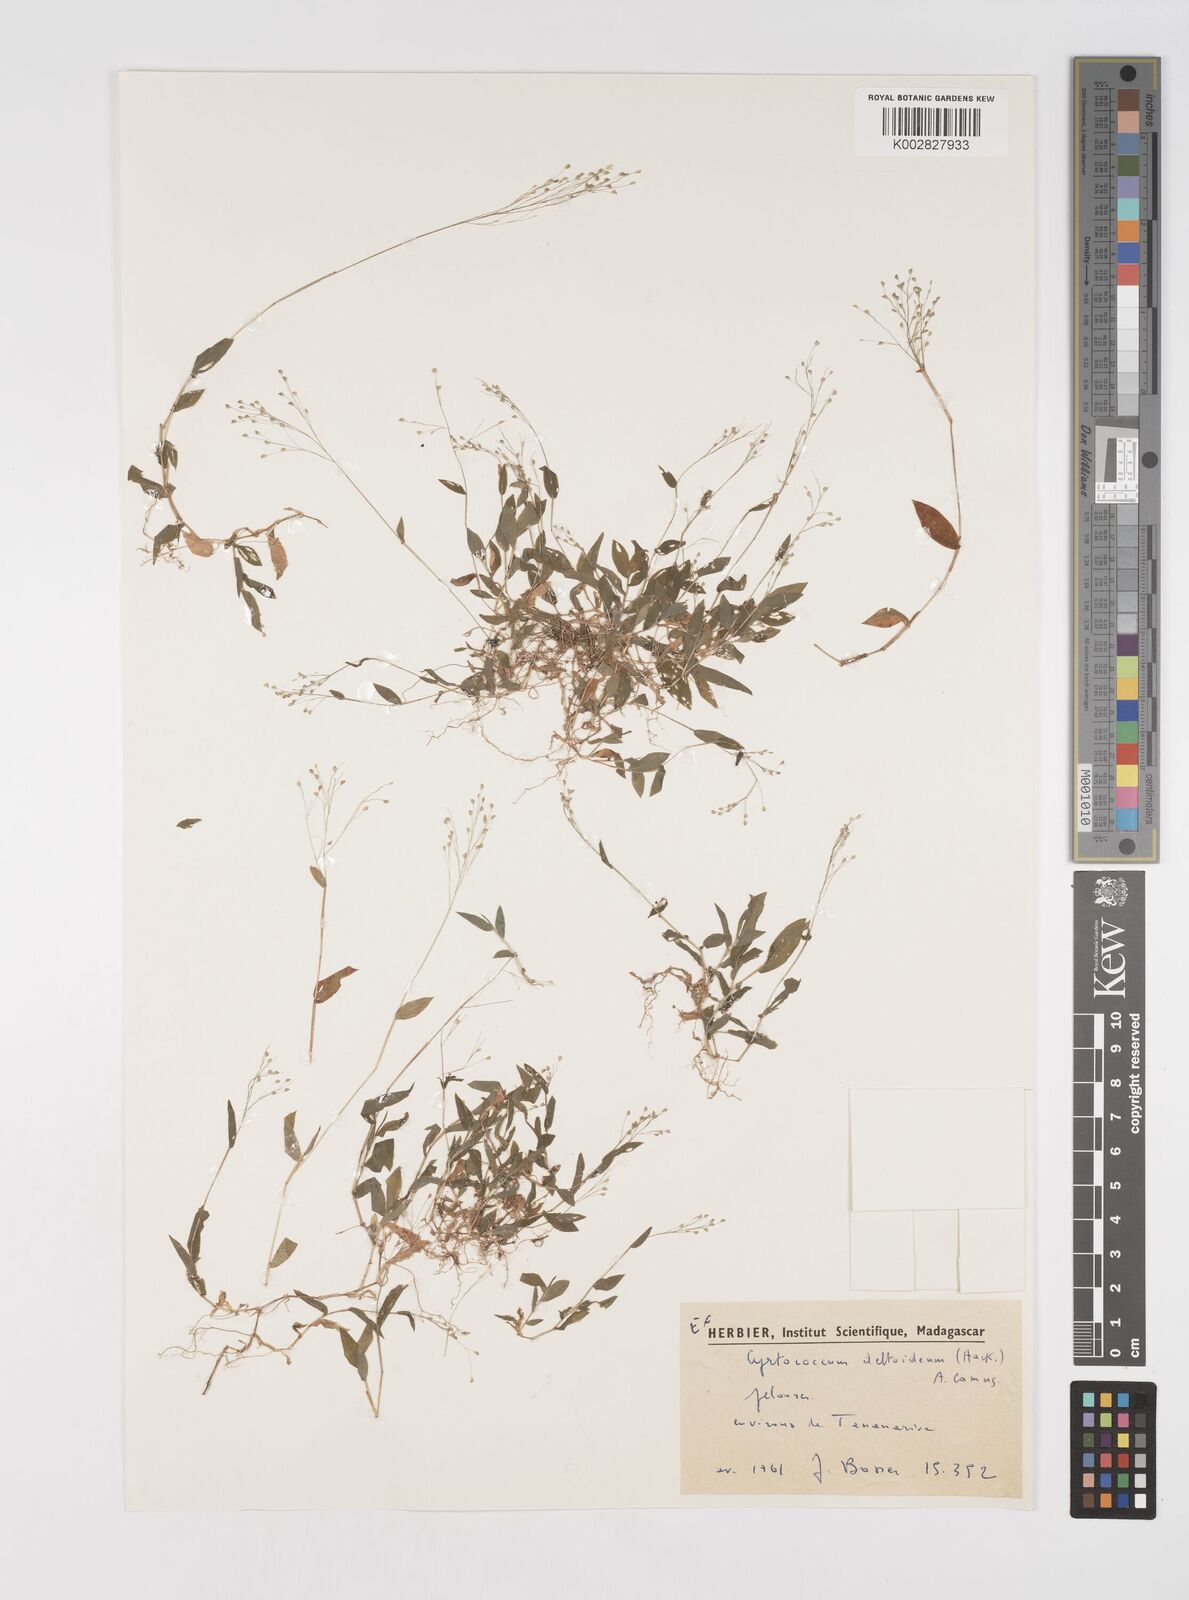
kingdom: Plantae
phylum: Tracheophyta
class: Liliopsida
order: Poales
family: Poaceae
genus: Cyrtococcum
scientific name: Cyrtococcum deltoideum
